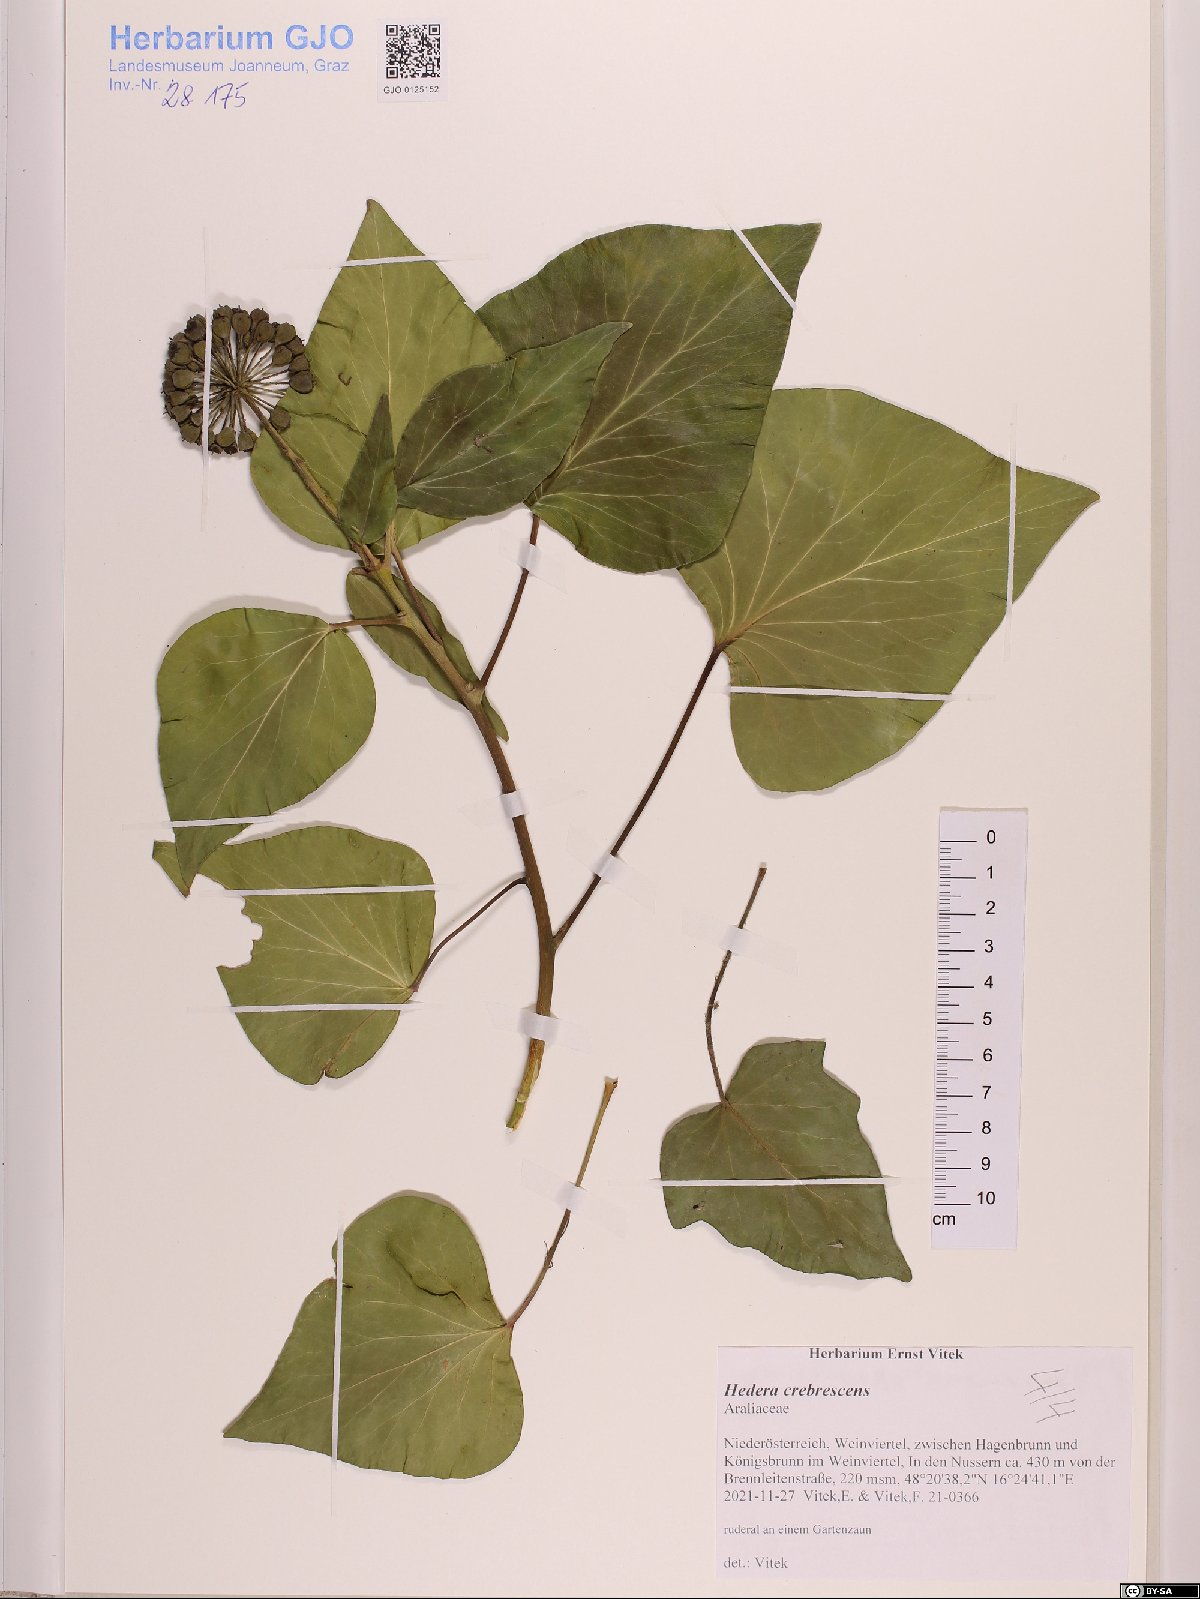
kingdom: Plantae
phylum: Tracheophyta
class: Magnoliopsida
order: Apiales
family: Araliaceae
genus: Hedera
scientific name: Hedera crebrescens
